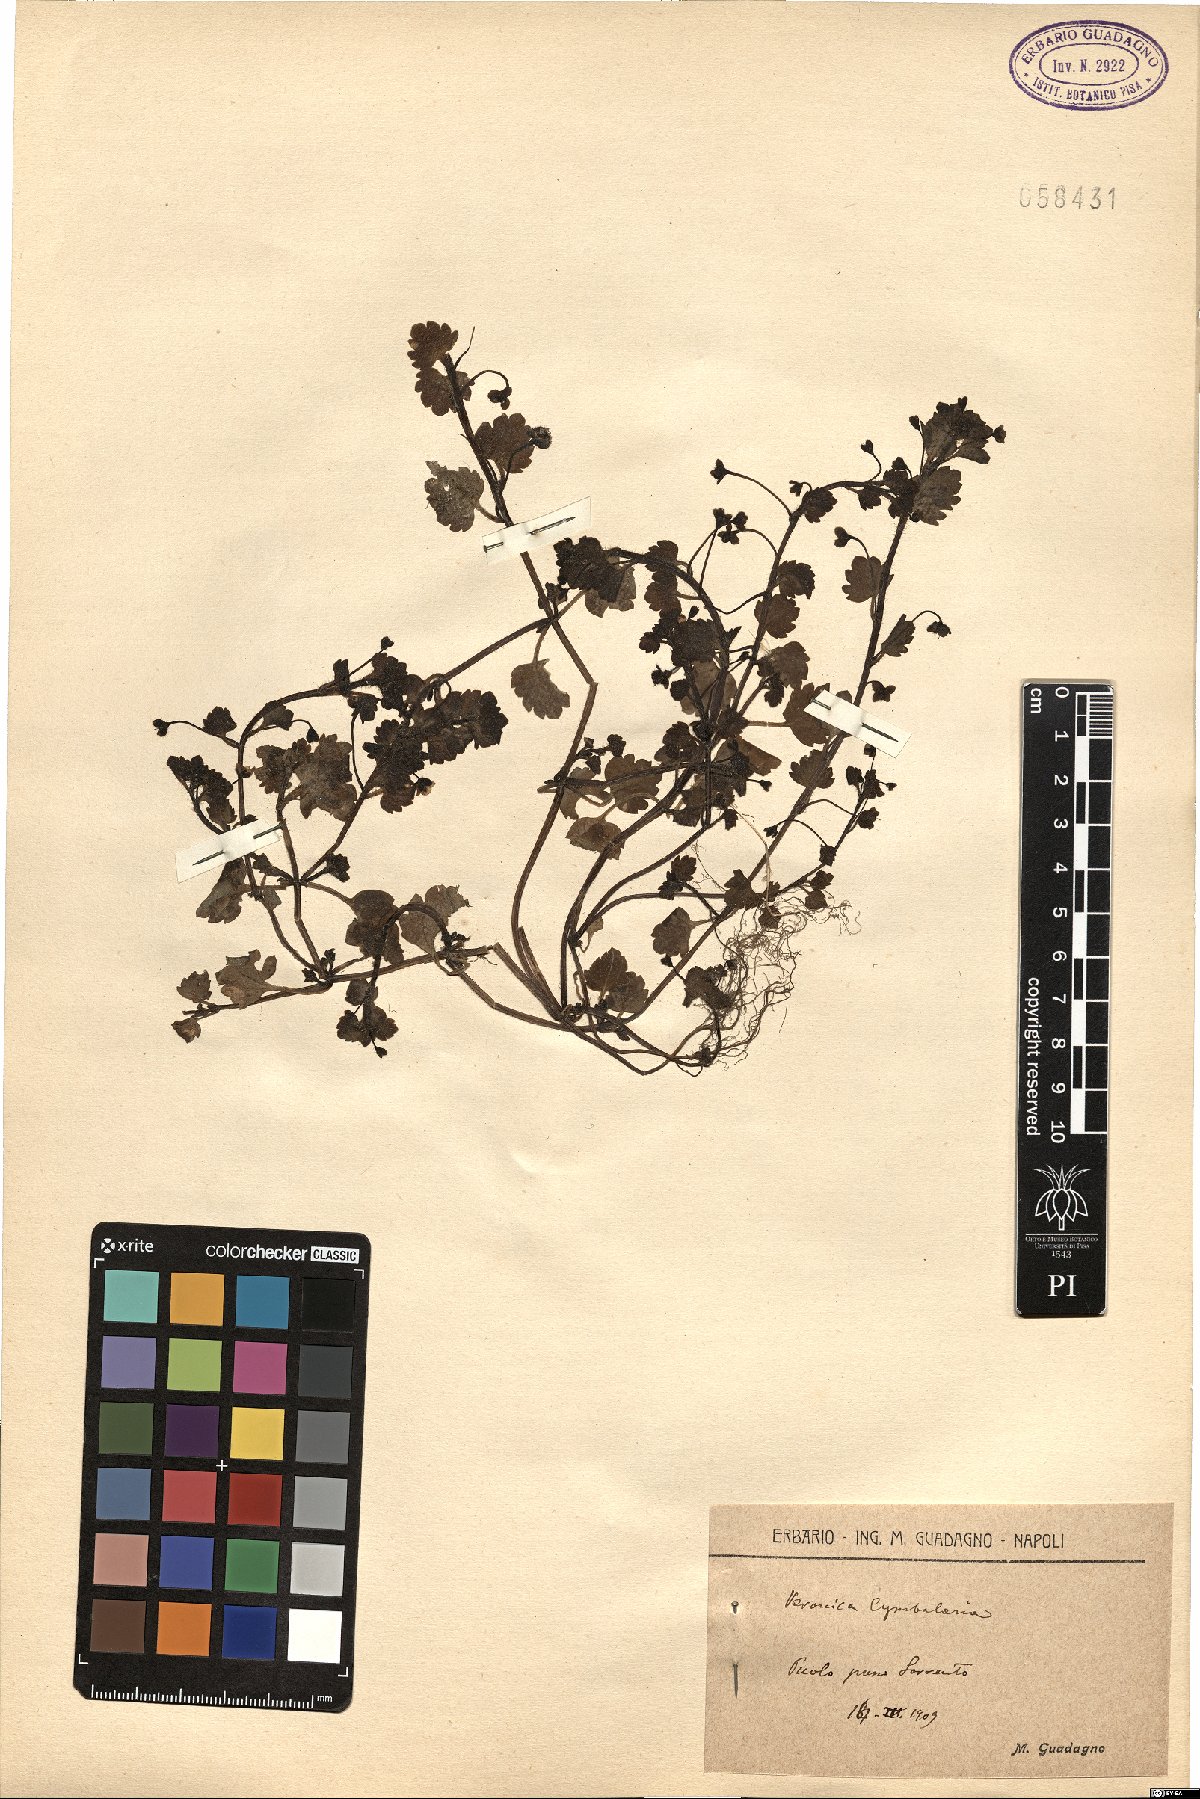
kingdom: Plantae
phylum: Tracheophyta
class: Magnoliopsida
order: Lamiales
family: Plantaginaceae
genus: Veronica
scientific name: Veronica cymbalaria
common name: Pale speedwell
